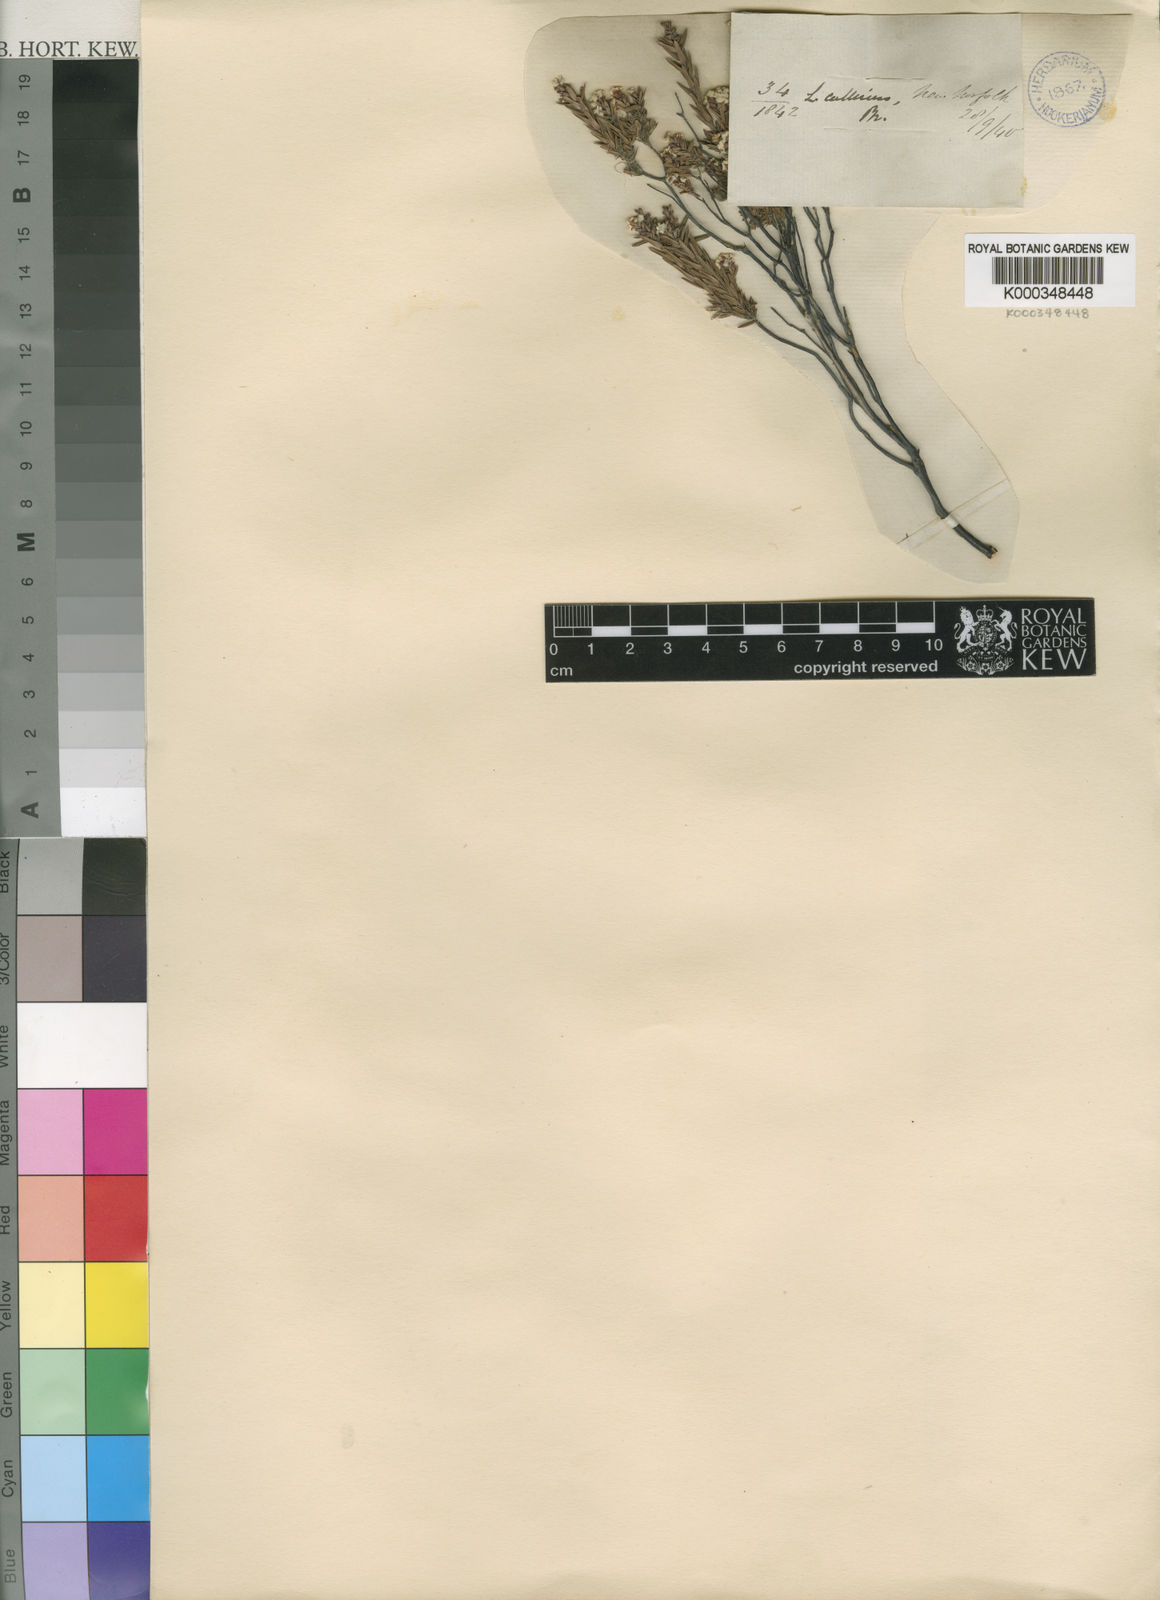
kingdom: Plantae
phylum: Tracheophyta
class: Magnoliopsida
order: Ericales
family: Ericaceae
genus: Leucopogon
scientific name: Leucopogon collinus
